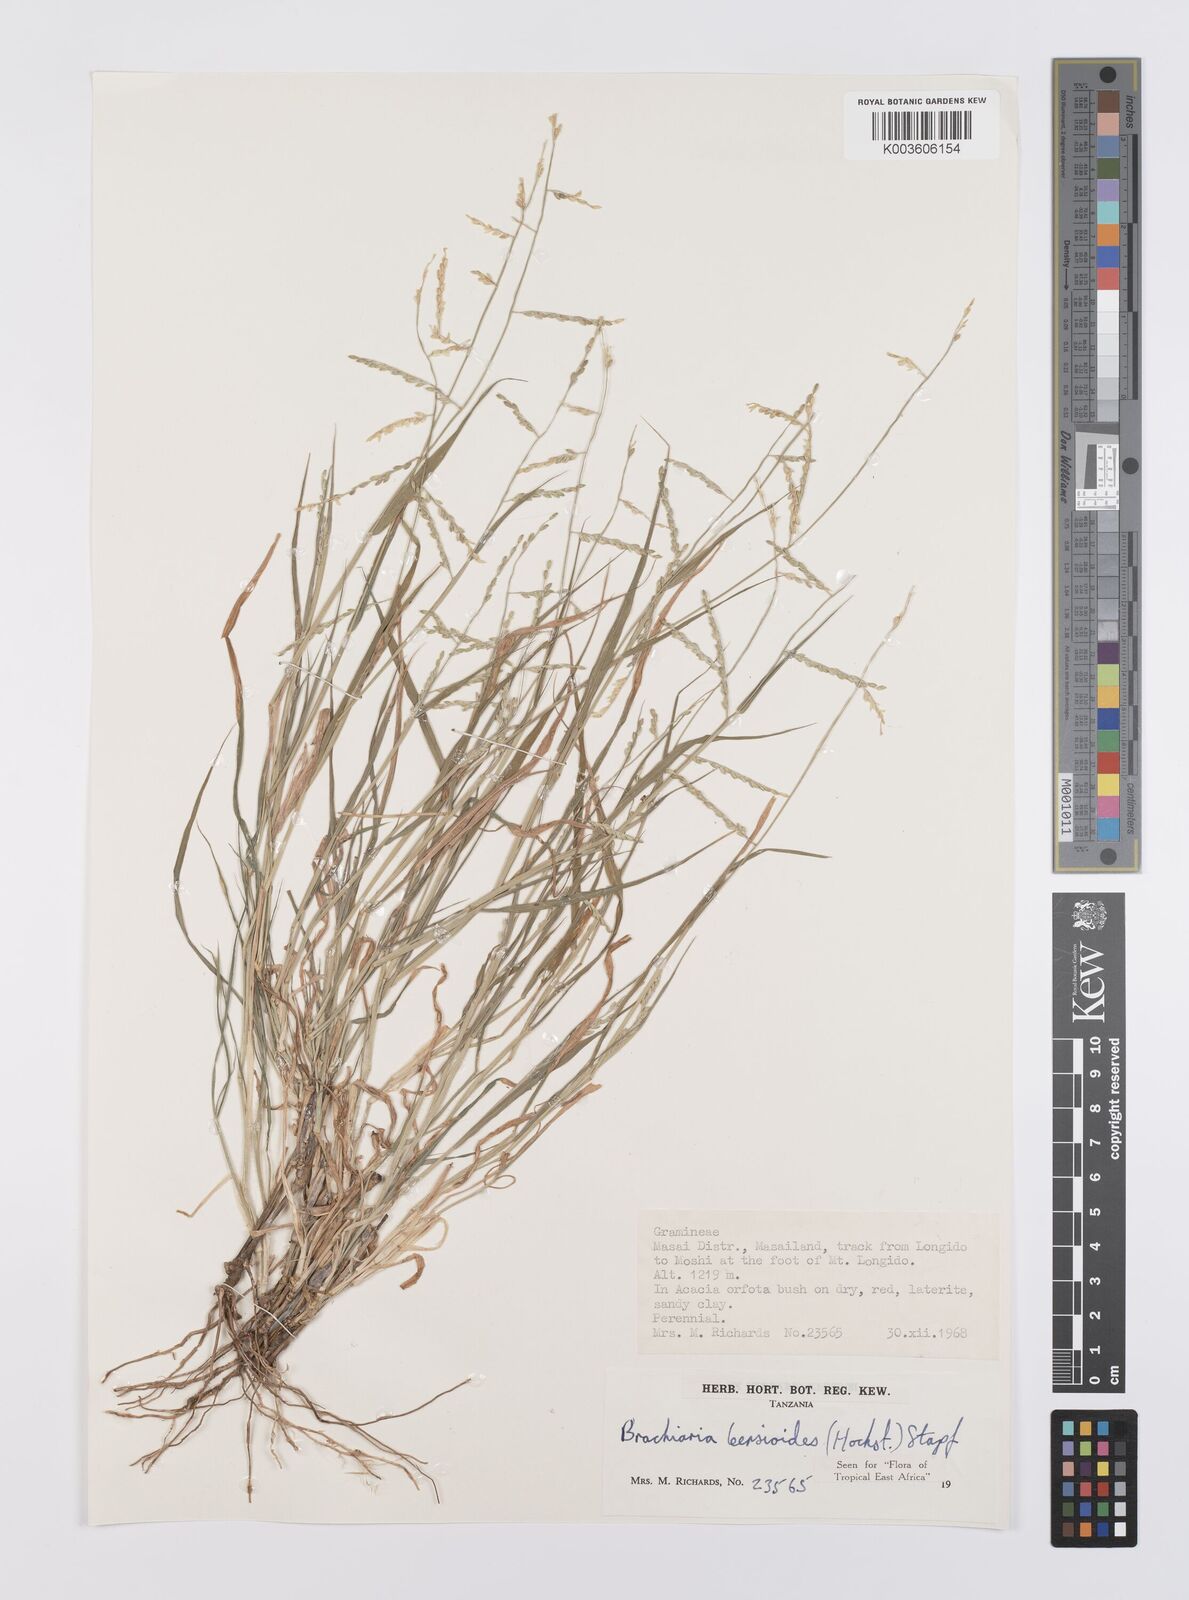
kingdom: Plantae
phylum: Tracheophyta
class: Liliopsida
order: Poales
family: Poaceae
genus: Urochloa
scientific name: Urochloa leersioides
